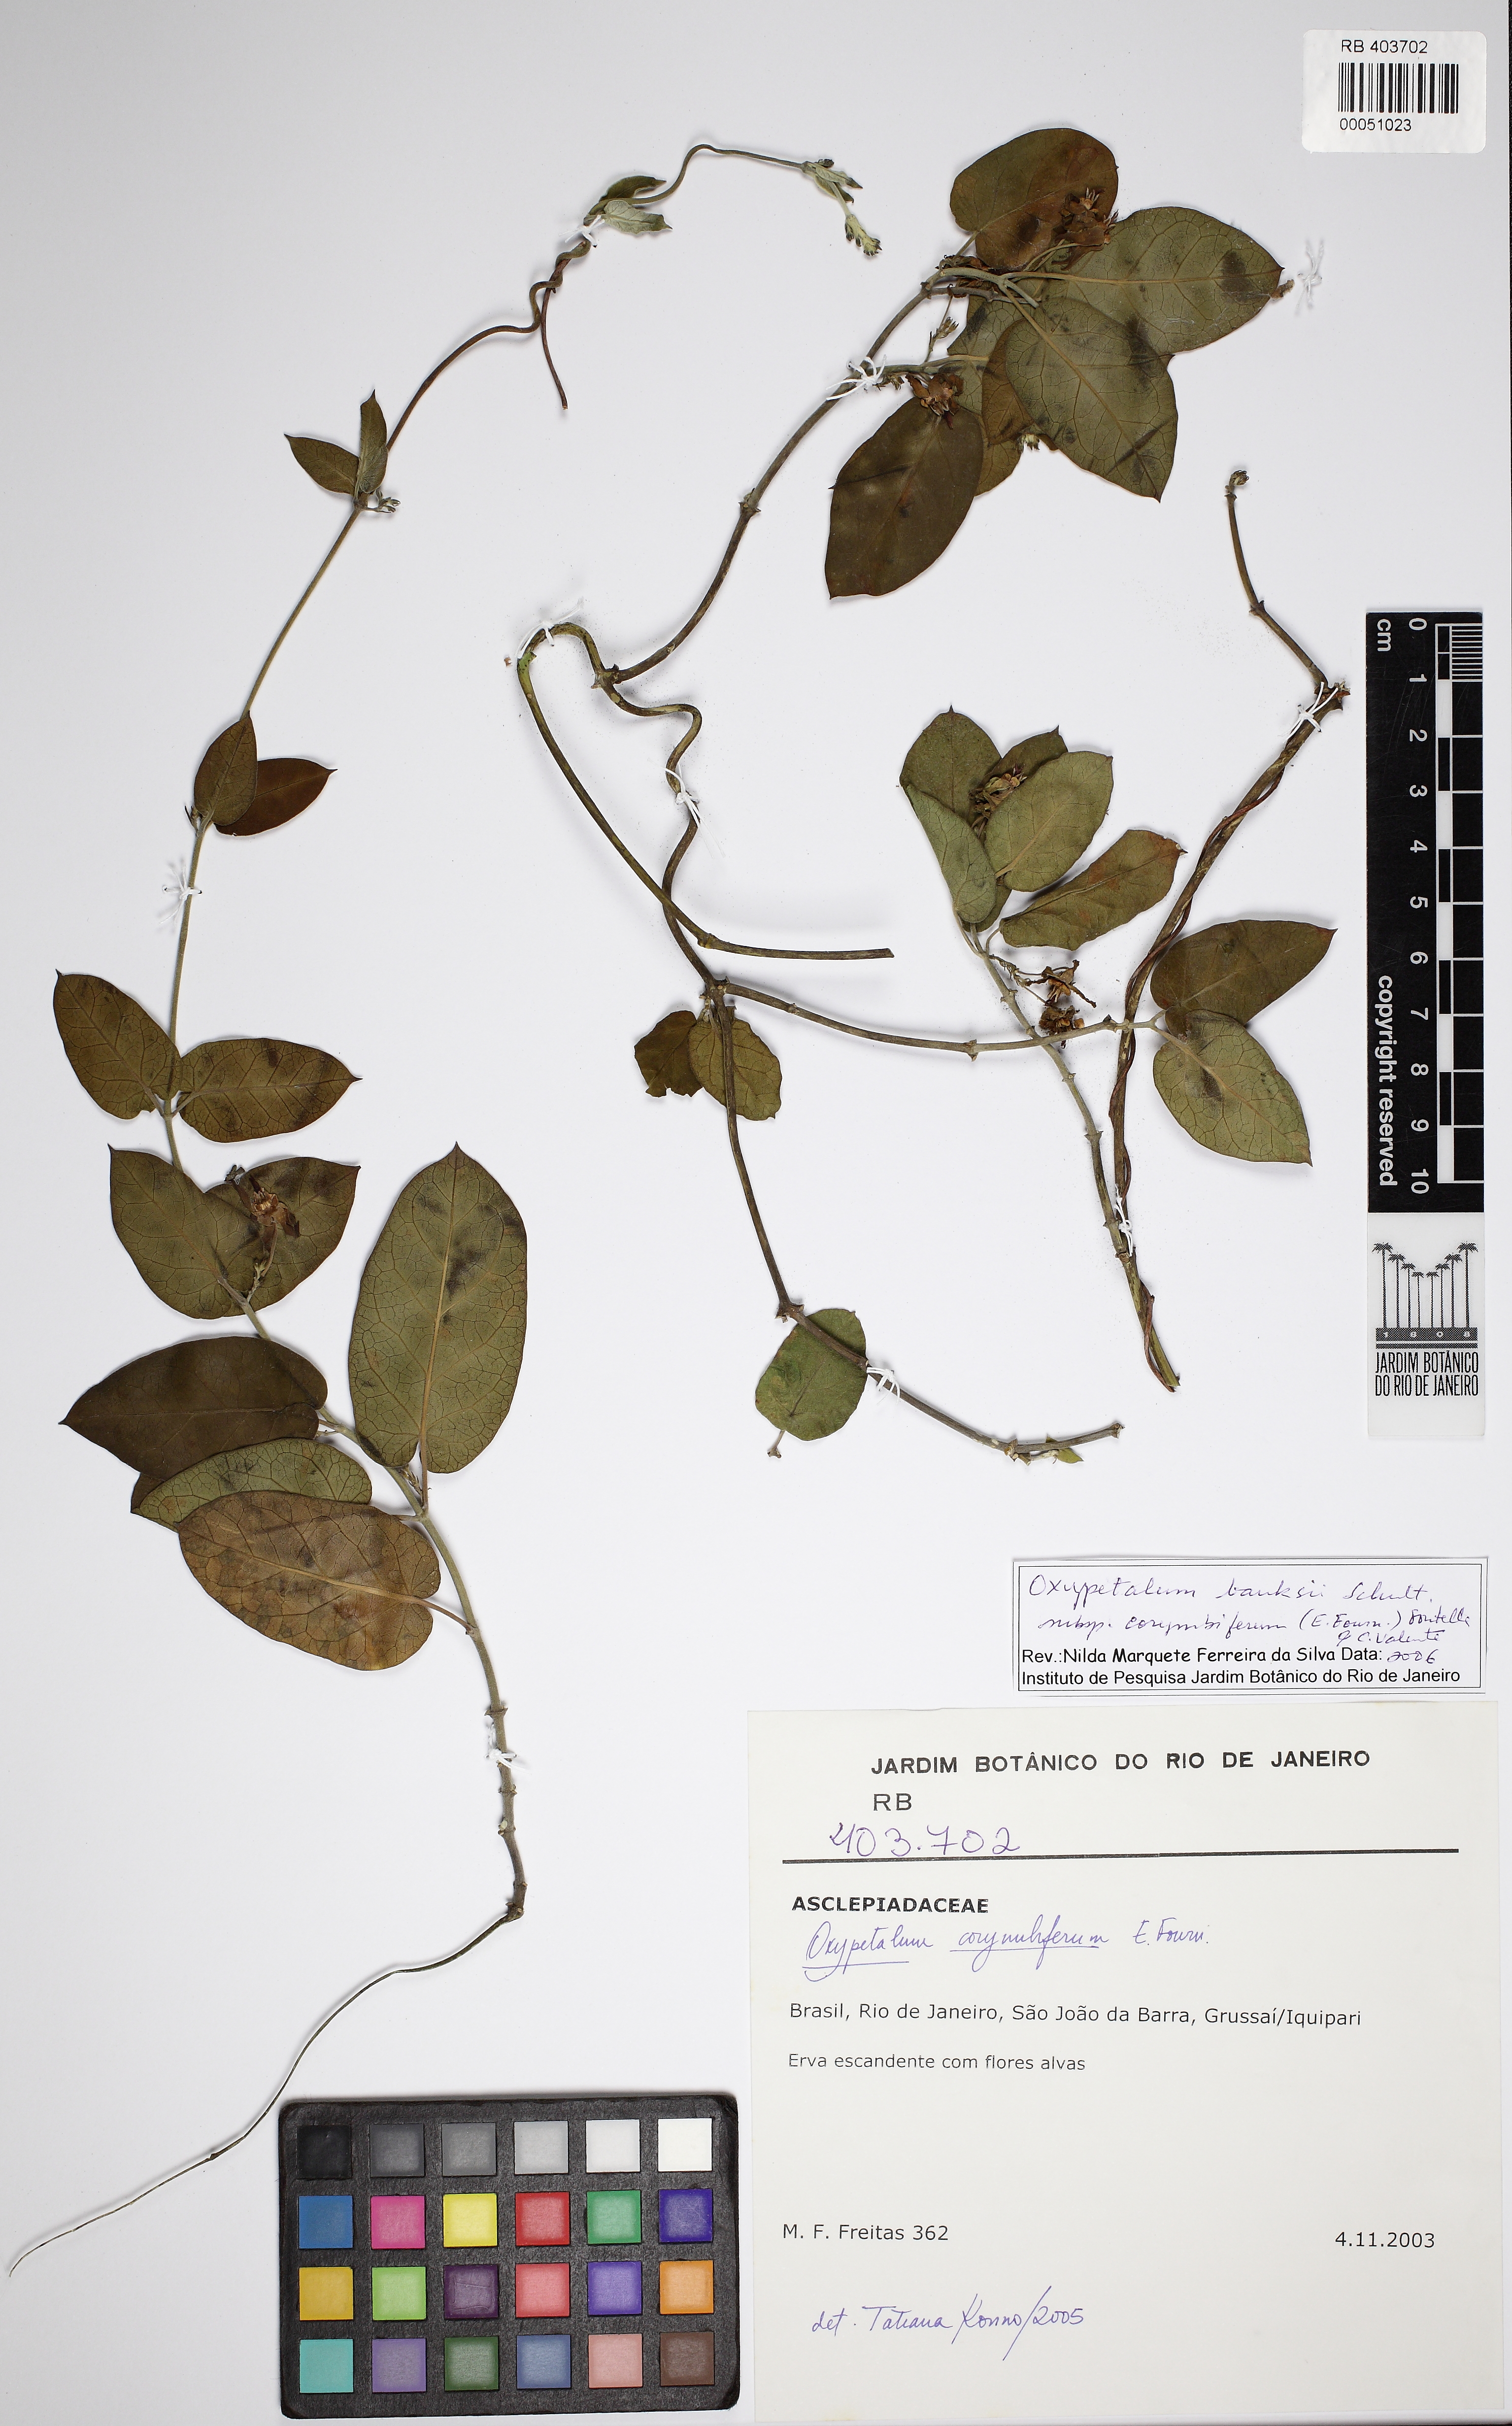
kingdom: Plantae
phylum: Tracheophyta
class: Magnoliopsida
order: Gentianales
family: Apocynaceae
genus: Oxypetalum
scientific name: Oxypetalum banksii
